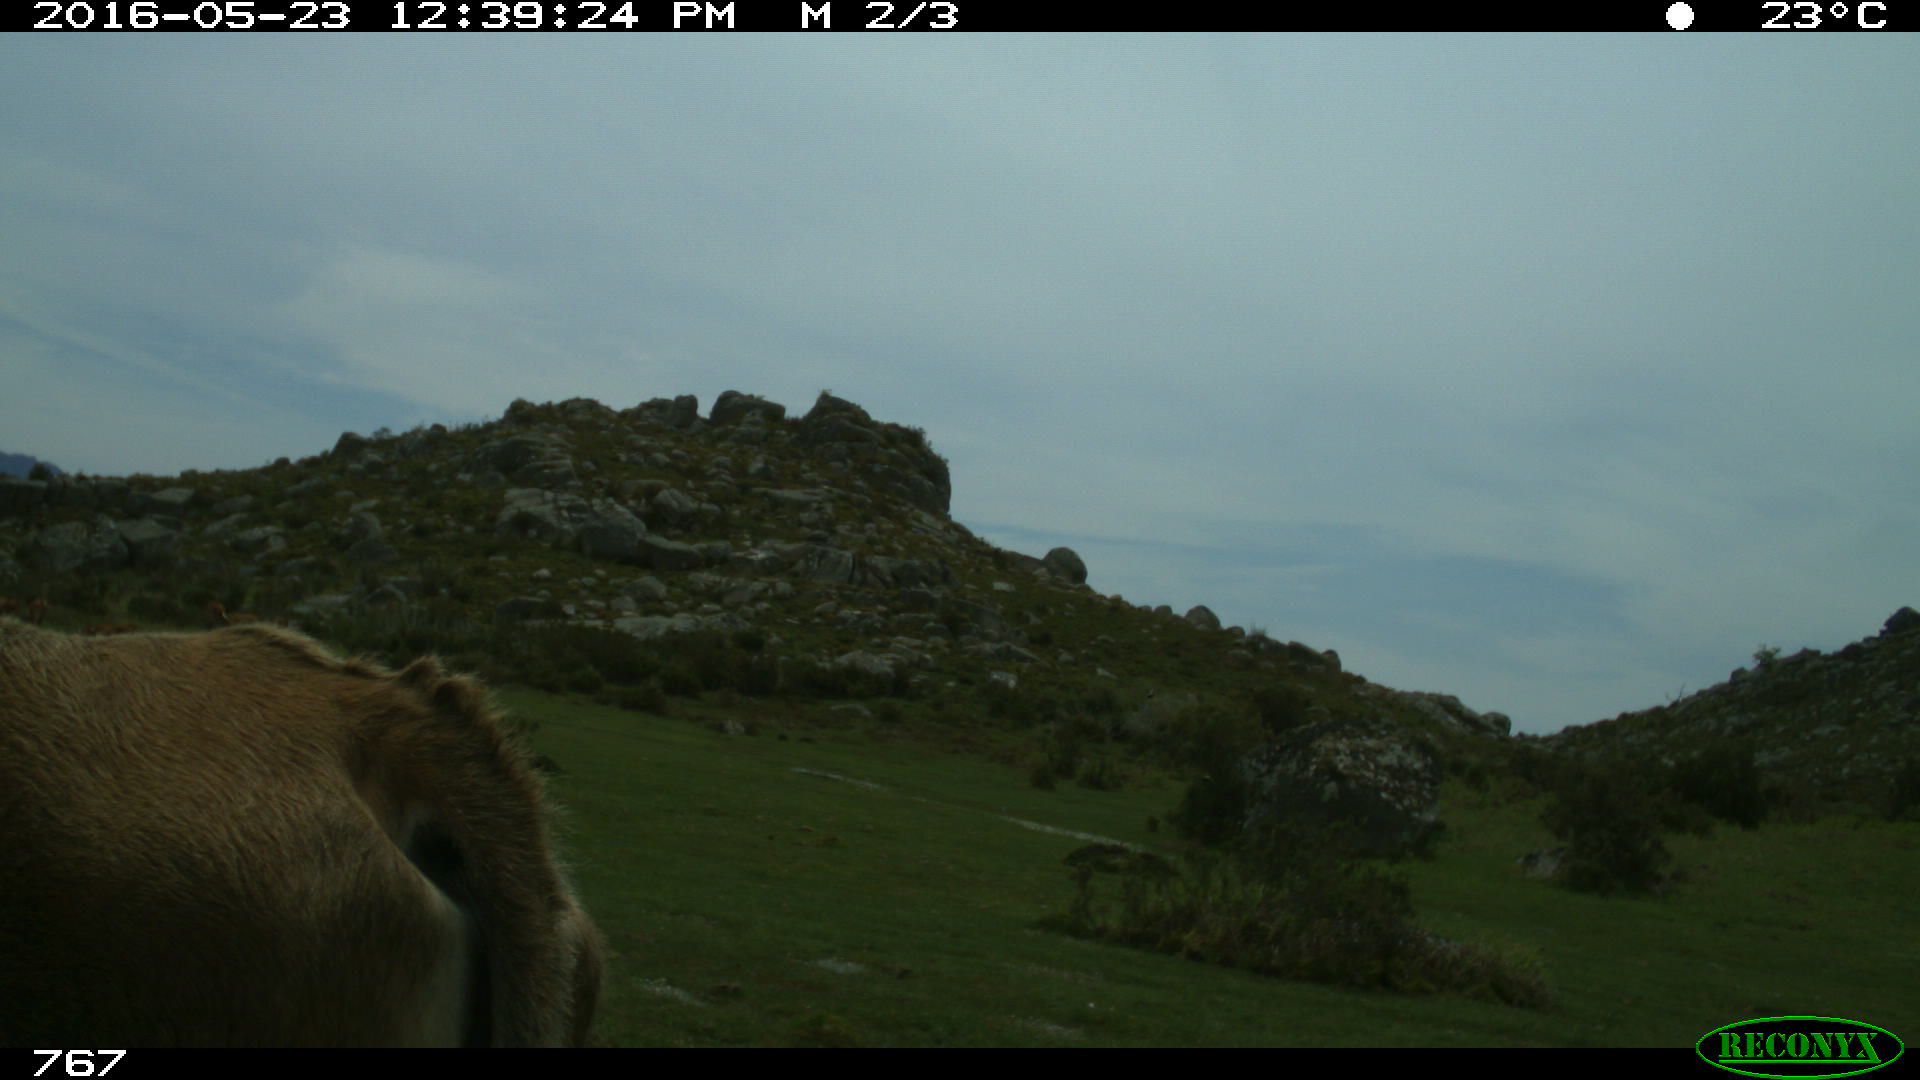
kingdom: Animalia
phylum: Chordata
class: Mammalia
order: Artiodactyla
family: Bovidae
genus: Bos
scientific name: Bos taurus
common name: Domesticated cattle
